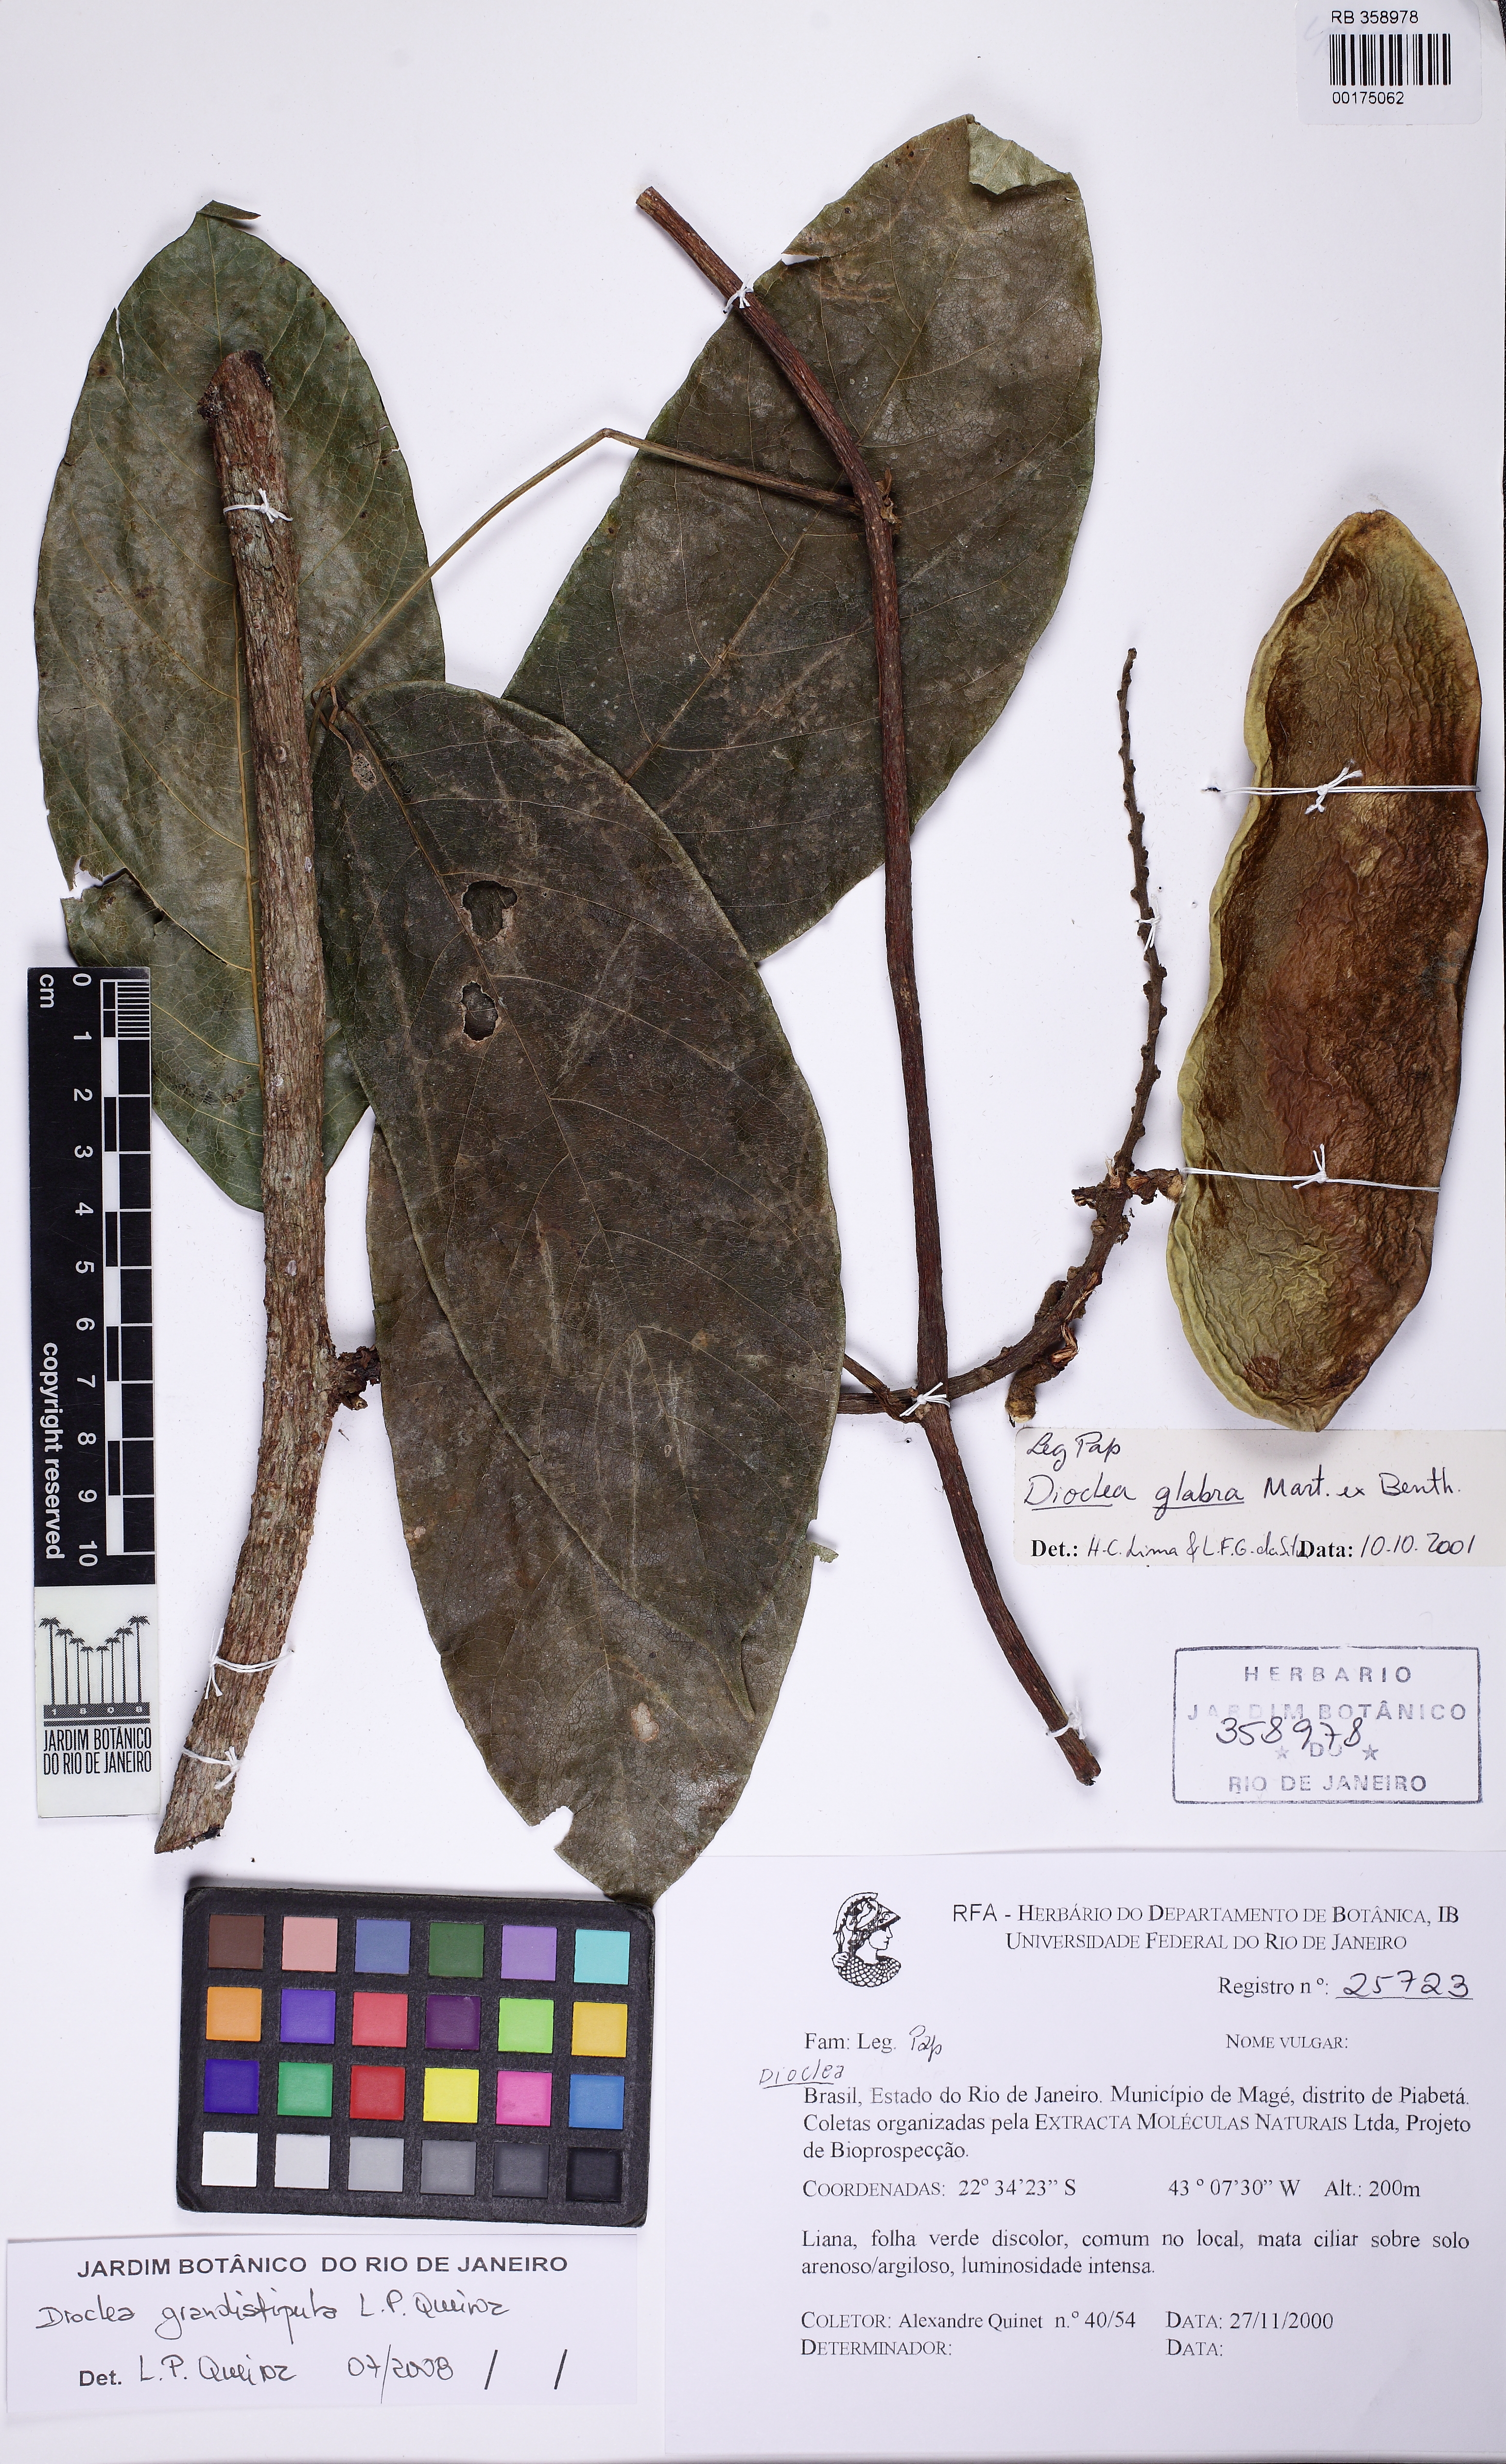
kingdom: Plantae
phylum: Tracheophyta
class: Magnoliopsida
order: Fabales
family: Fabaceae
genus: Macropsychanthus
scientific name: Macropsychanthus grandistipulus
